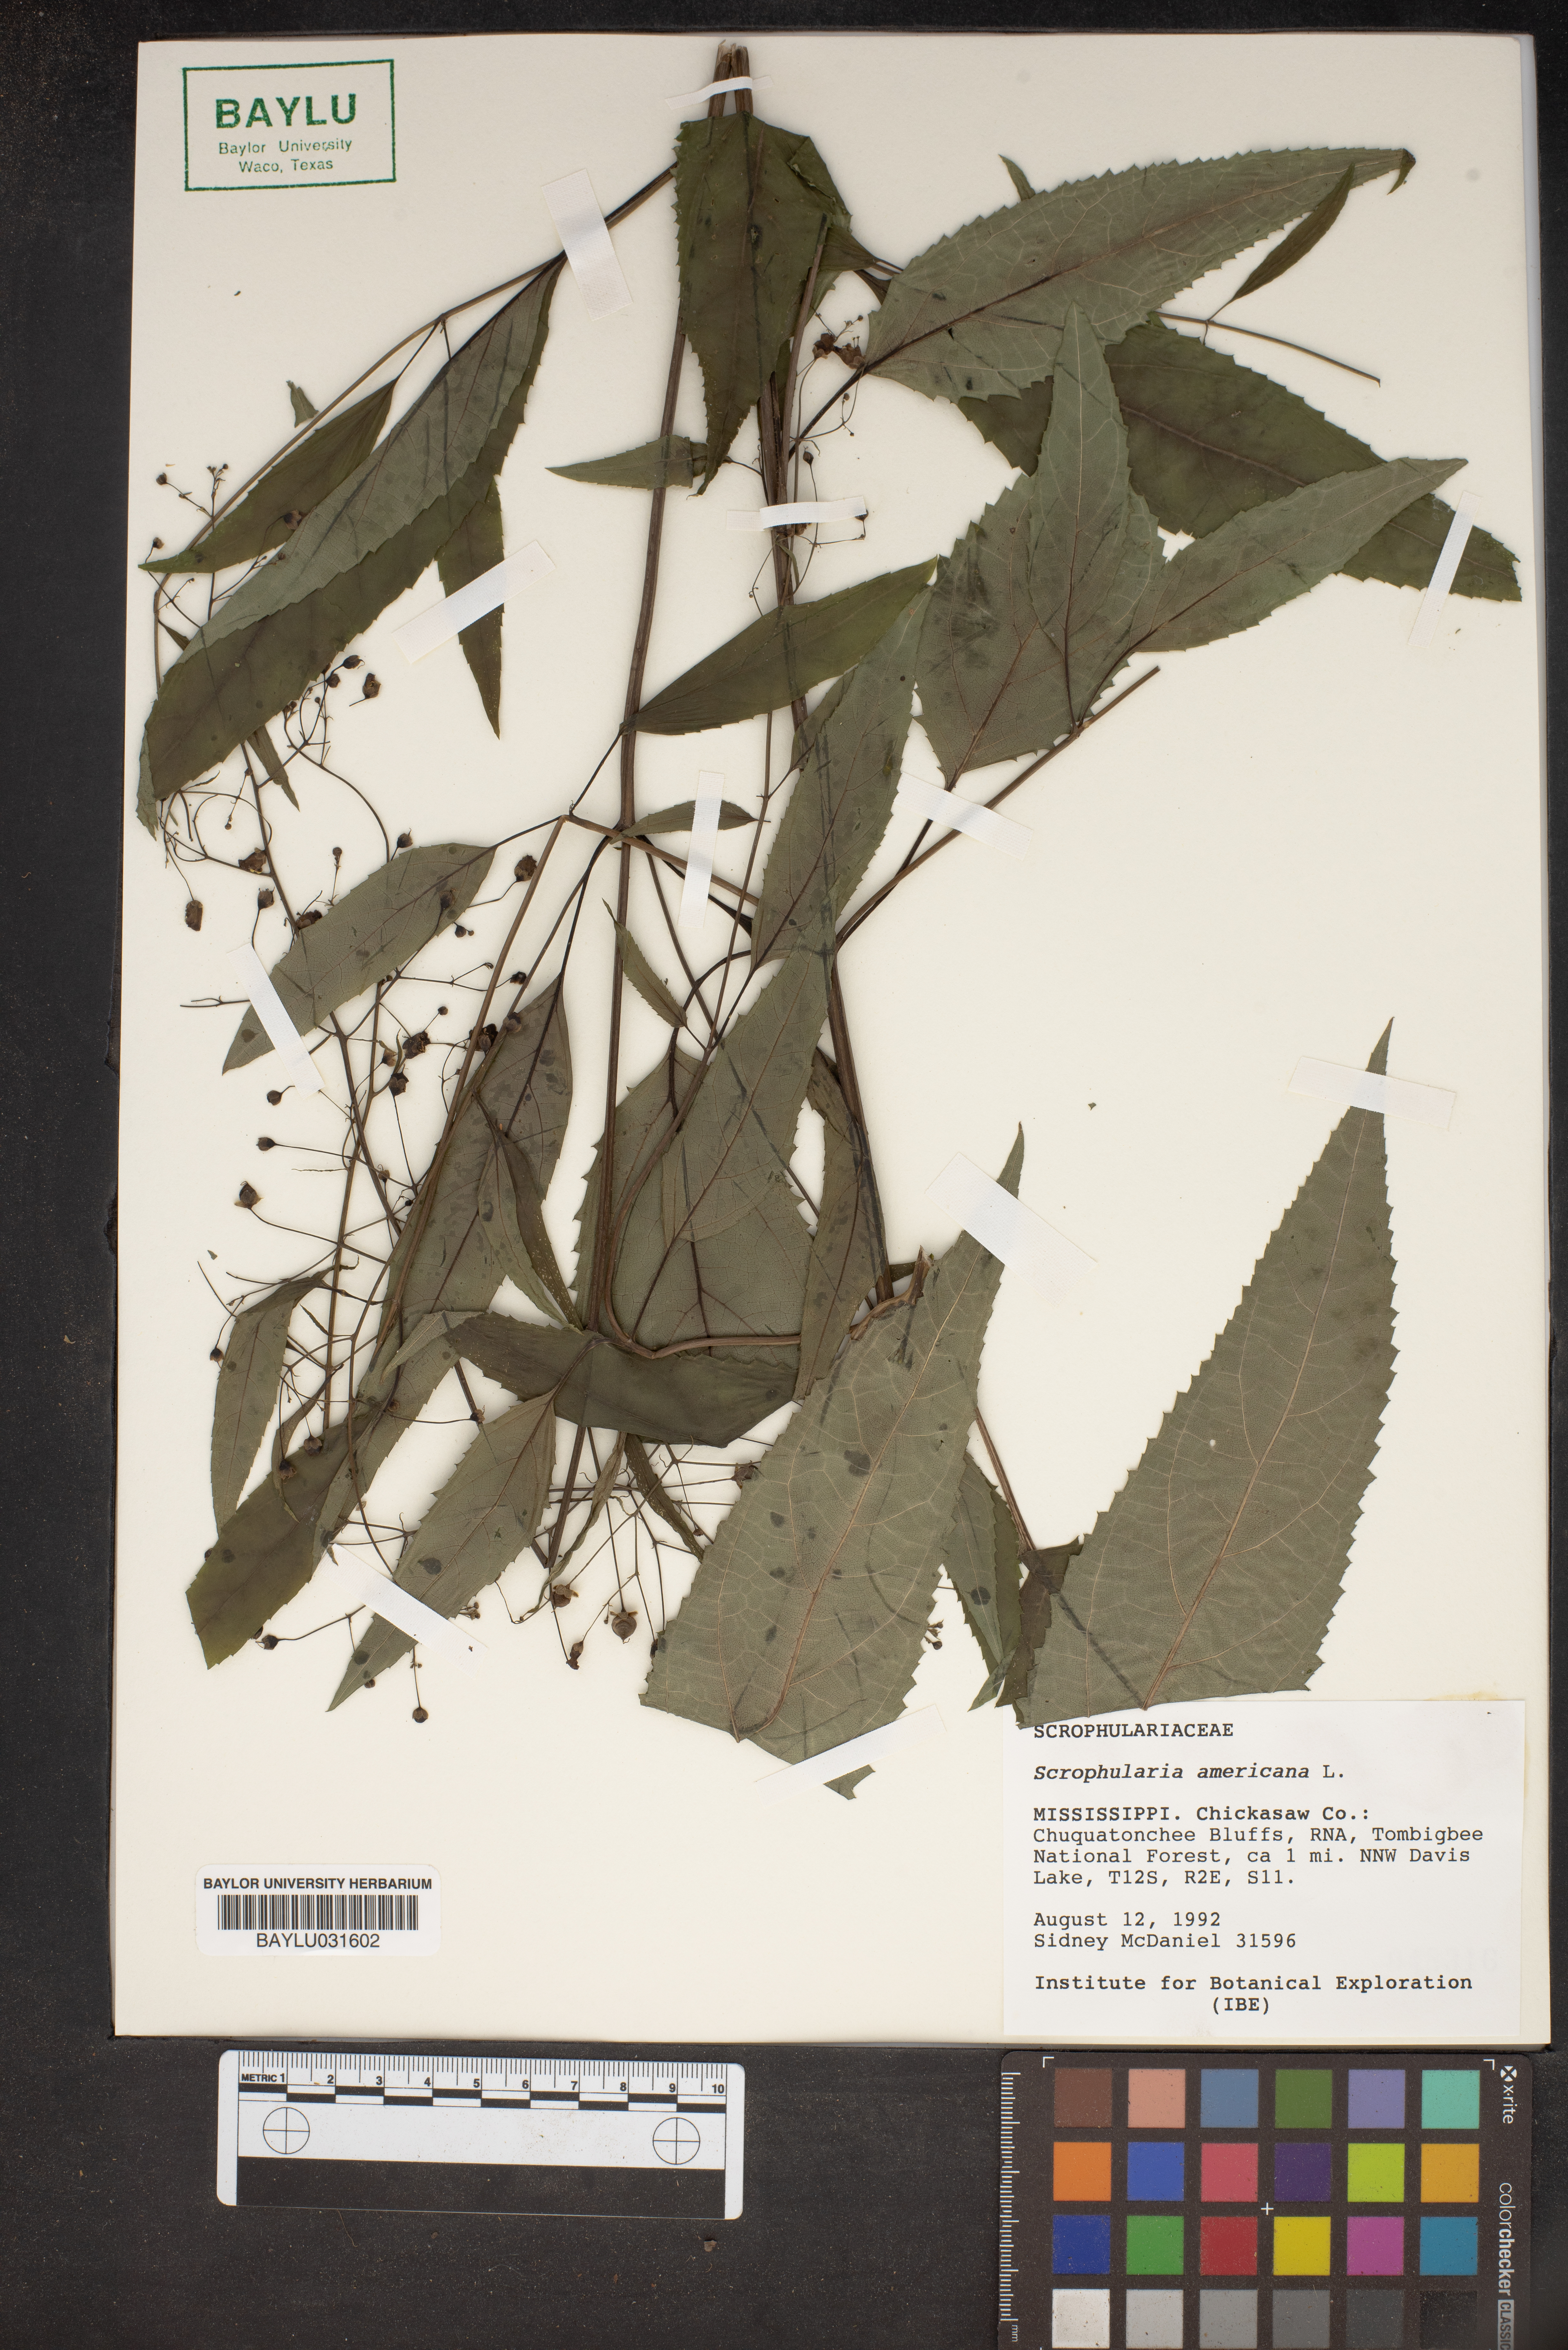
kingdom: Plantae
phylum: Tracheophyta
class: Magnoliopsida
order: Lamiales
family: Scrophulariaceae
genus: Scrophularia
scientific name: Scrophularia
